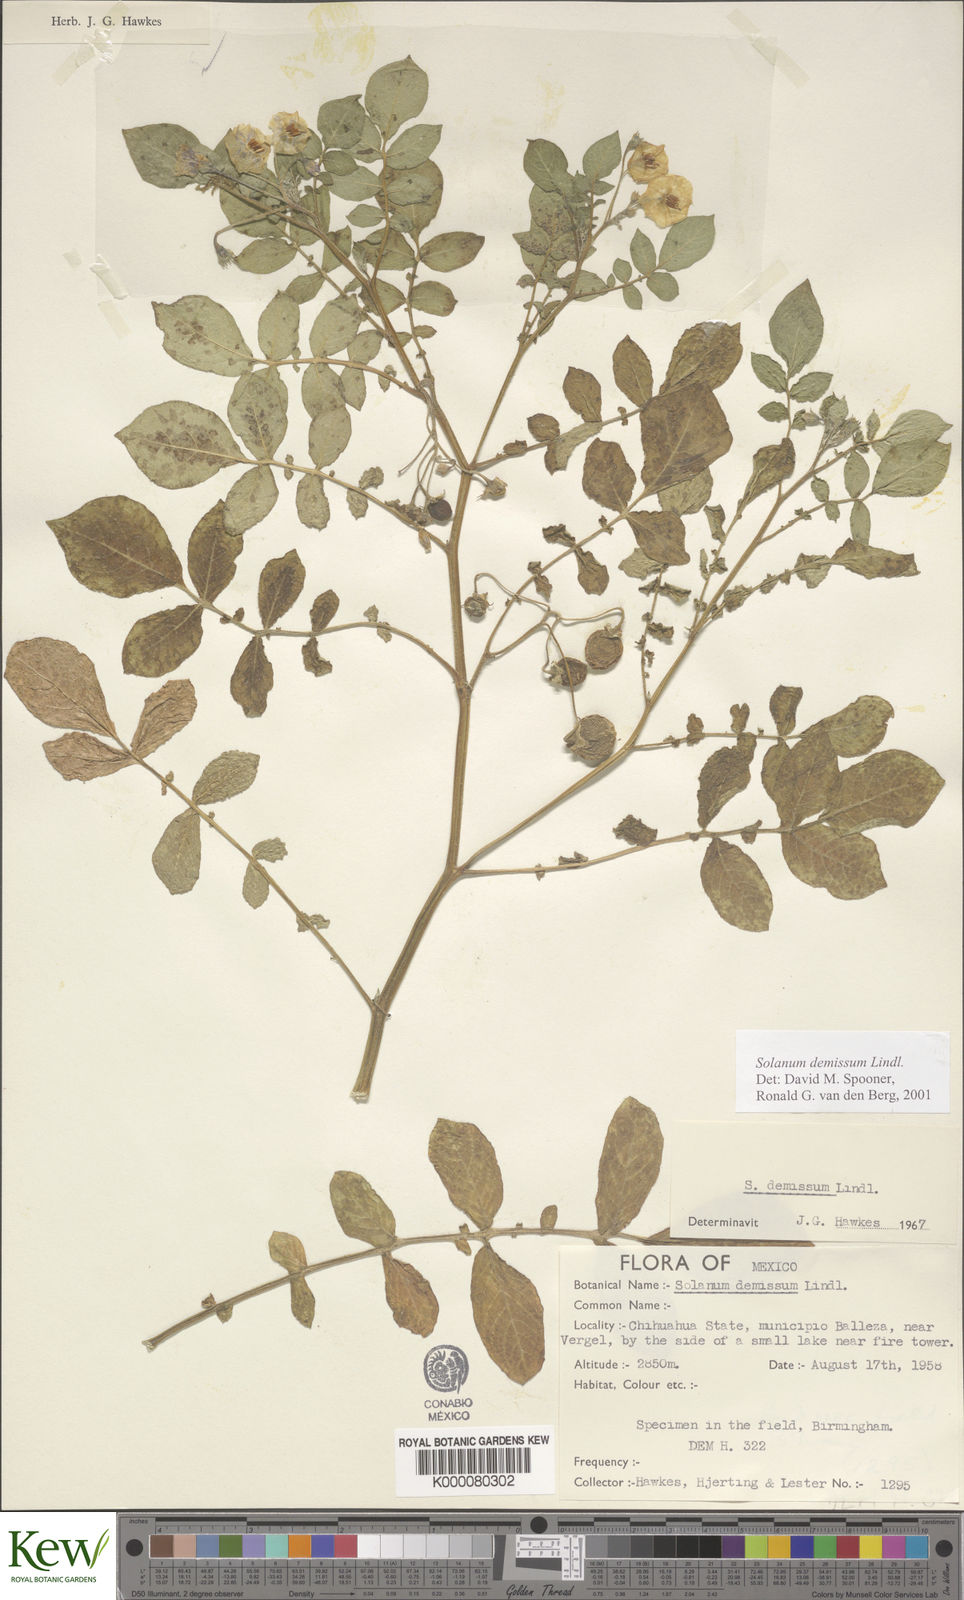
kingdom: Plantae
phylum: Tracheophyta
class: Magnoliopsida
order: Solanales
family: Solanaceae
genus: Solanum
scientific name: Solanum demissum
